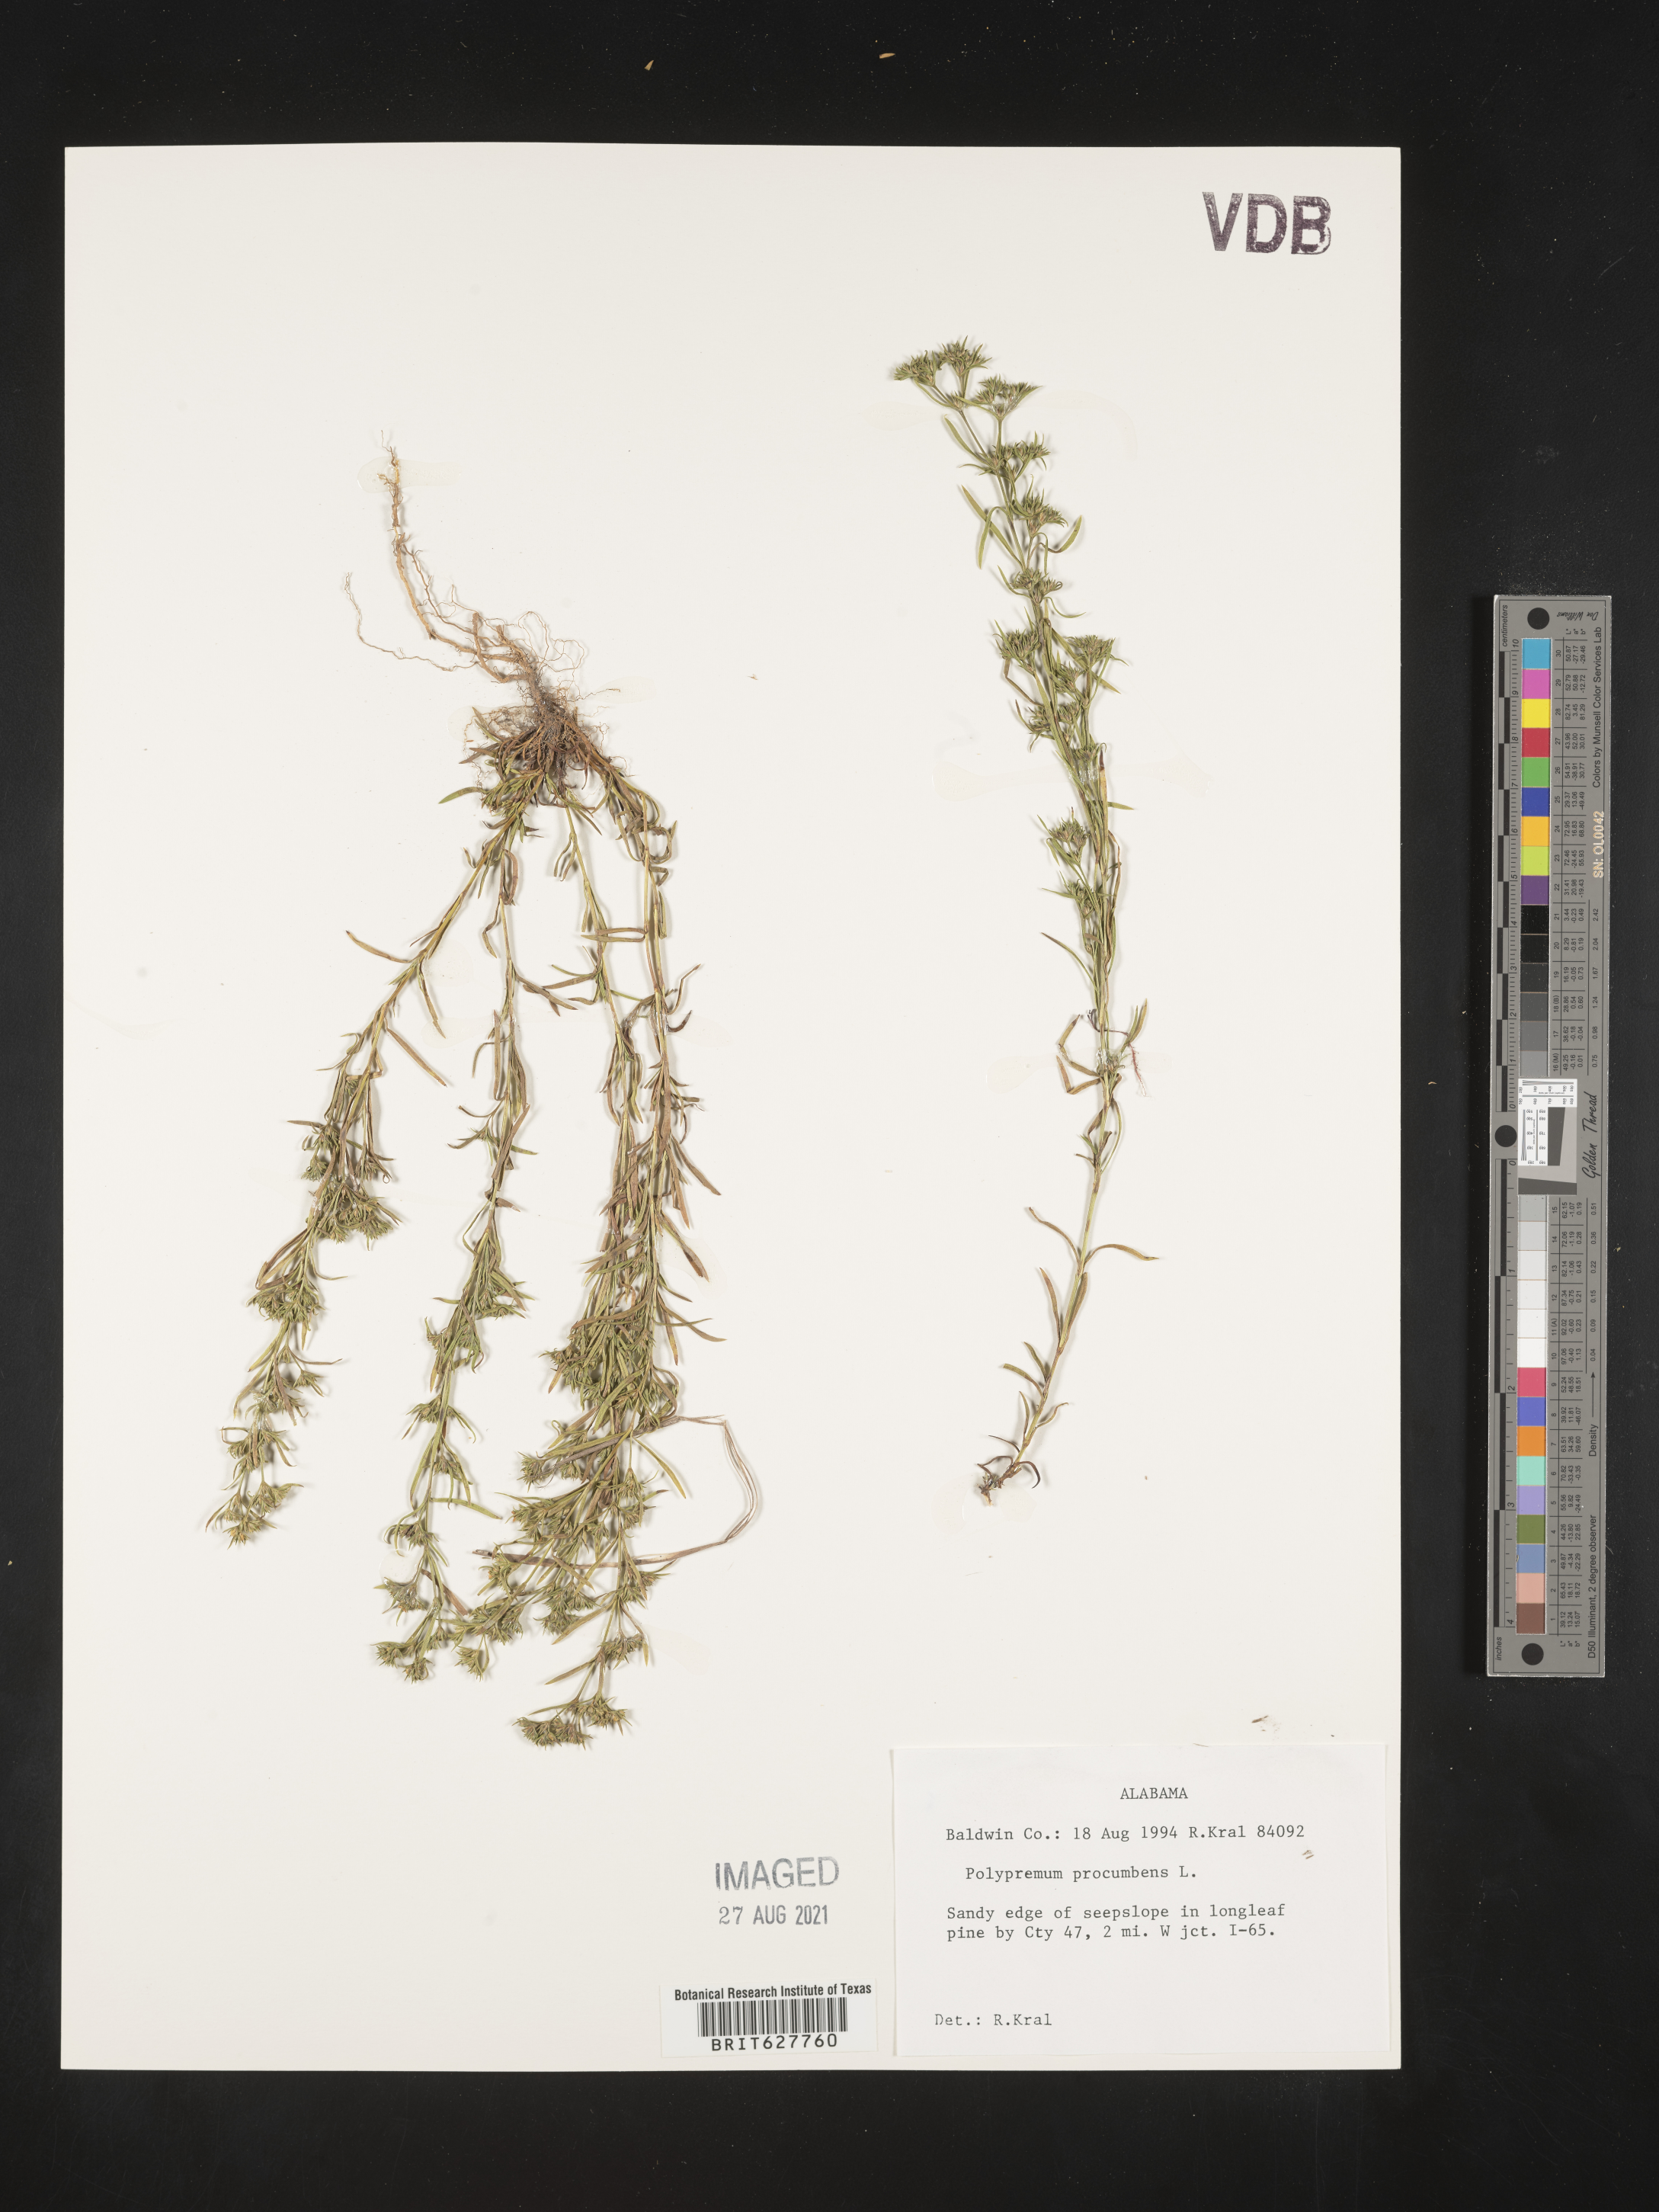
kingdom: Plantae
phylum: Tracheophyta
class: Magnoliopsida
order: Lamiales
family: Tetrachondraceae
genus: Polypremum
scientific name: Polypremum procumbens
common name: Juniper-leaf
